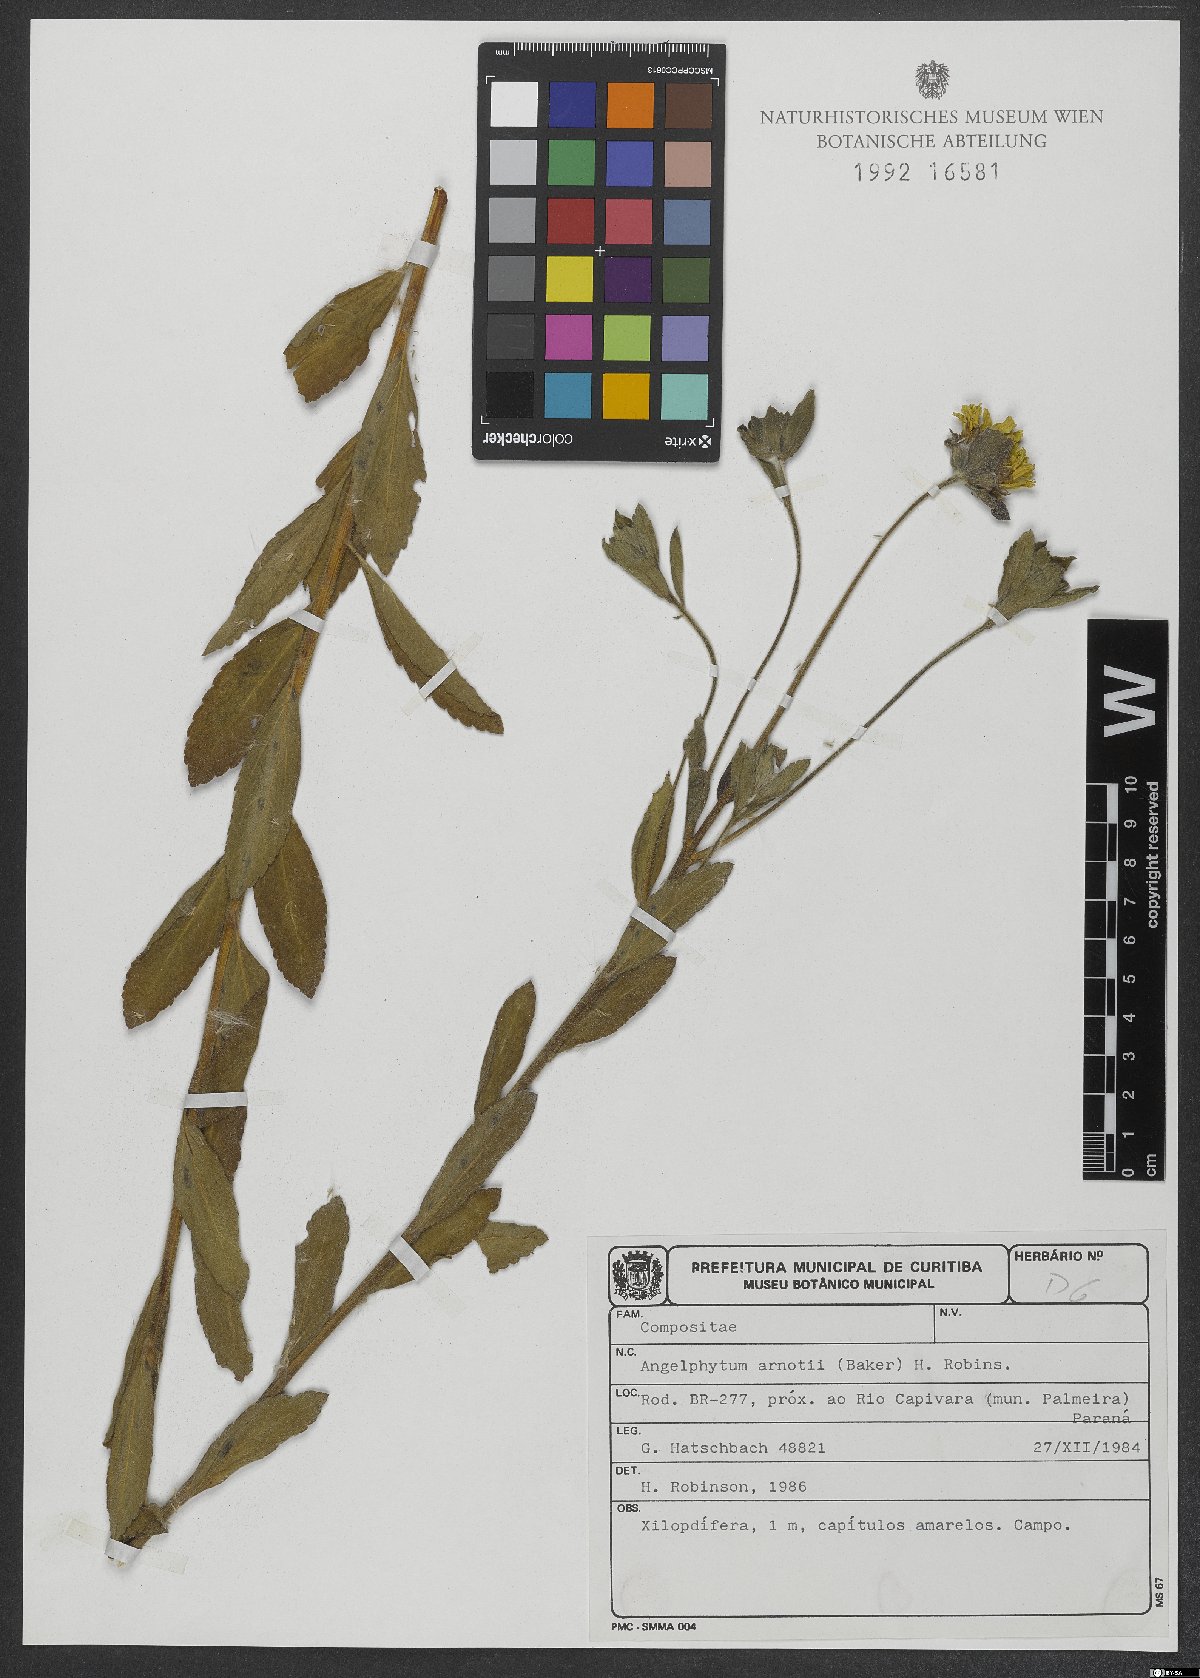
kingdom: Plantae
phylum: Tracheophyta
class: Magnoliopsida
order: Asterales
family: Asteraceae
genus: Dimerostemma
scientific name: Dimerostemma arnottii
